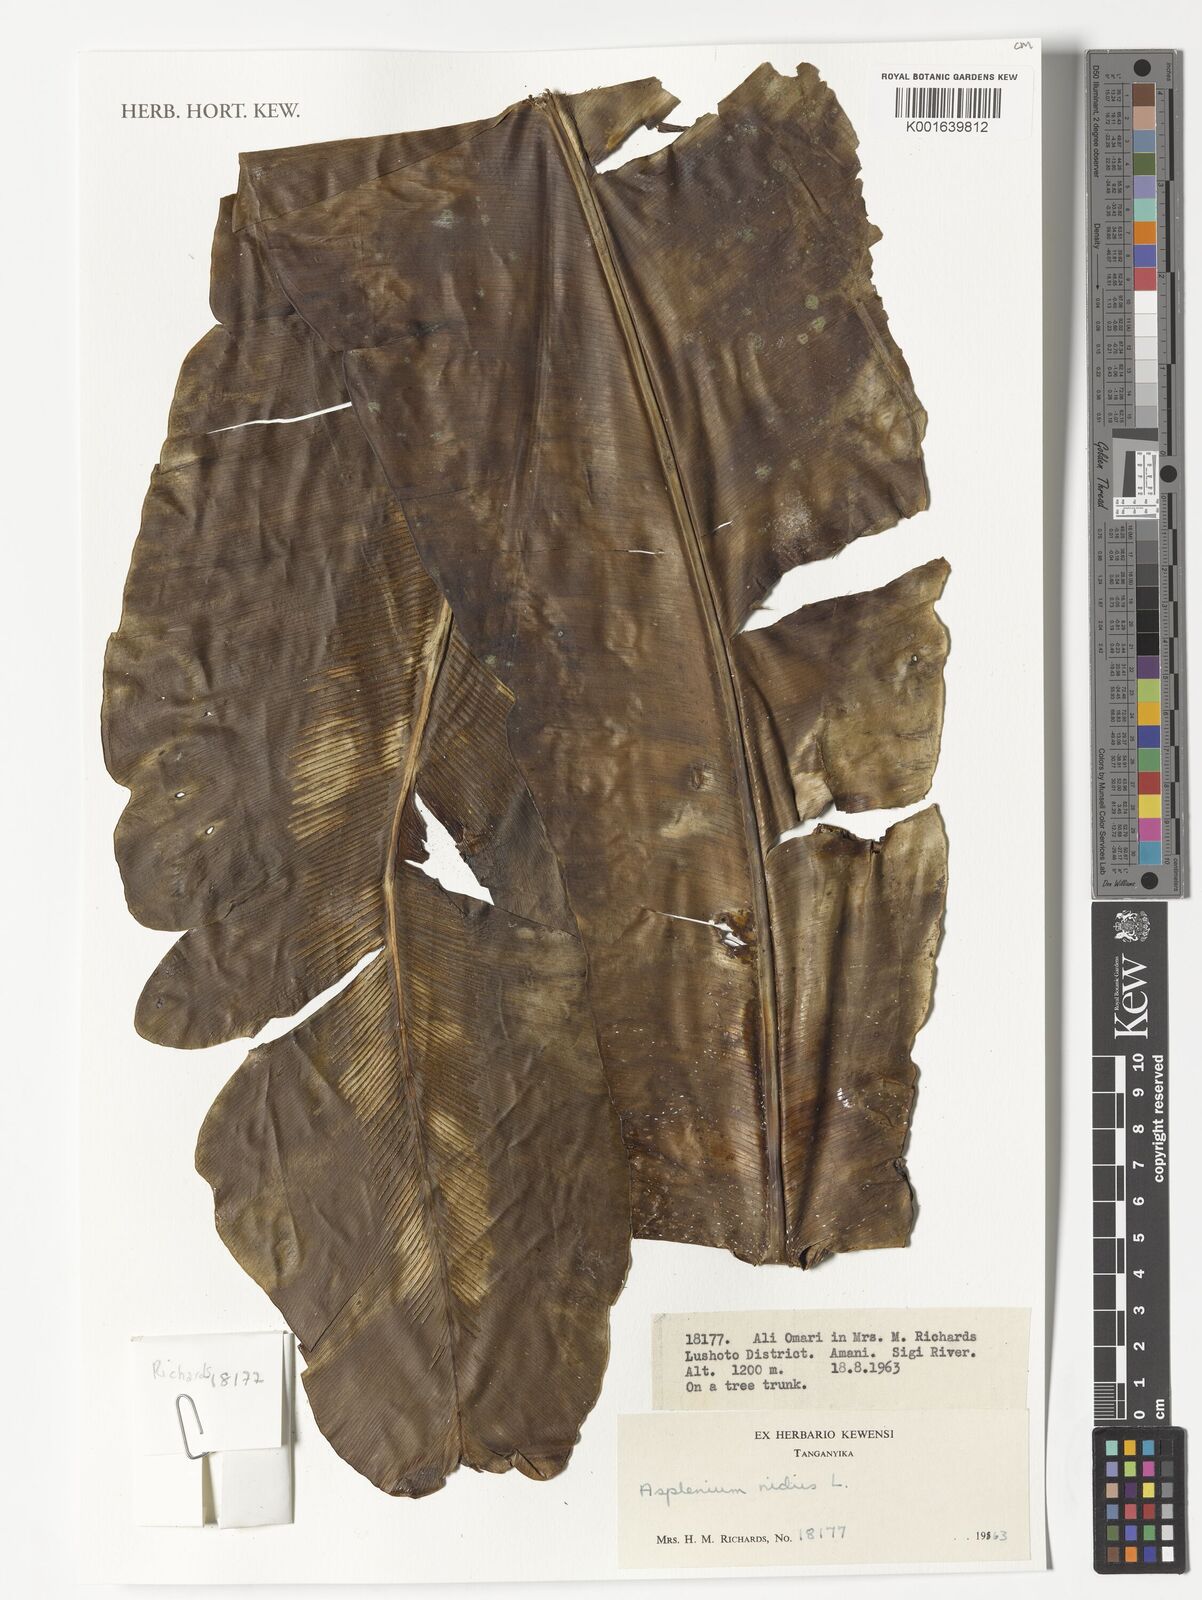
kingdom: Plantae
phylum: Tracheophyta
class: Polypodiopsida
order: Polypodiales
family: Aspleniaceae
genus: Asplenium
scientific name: Asplenium nidus
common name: Bird's-nest fern
